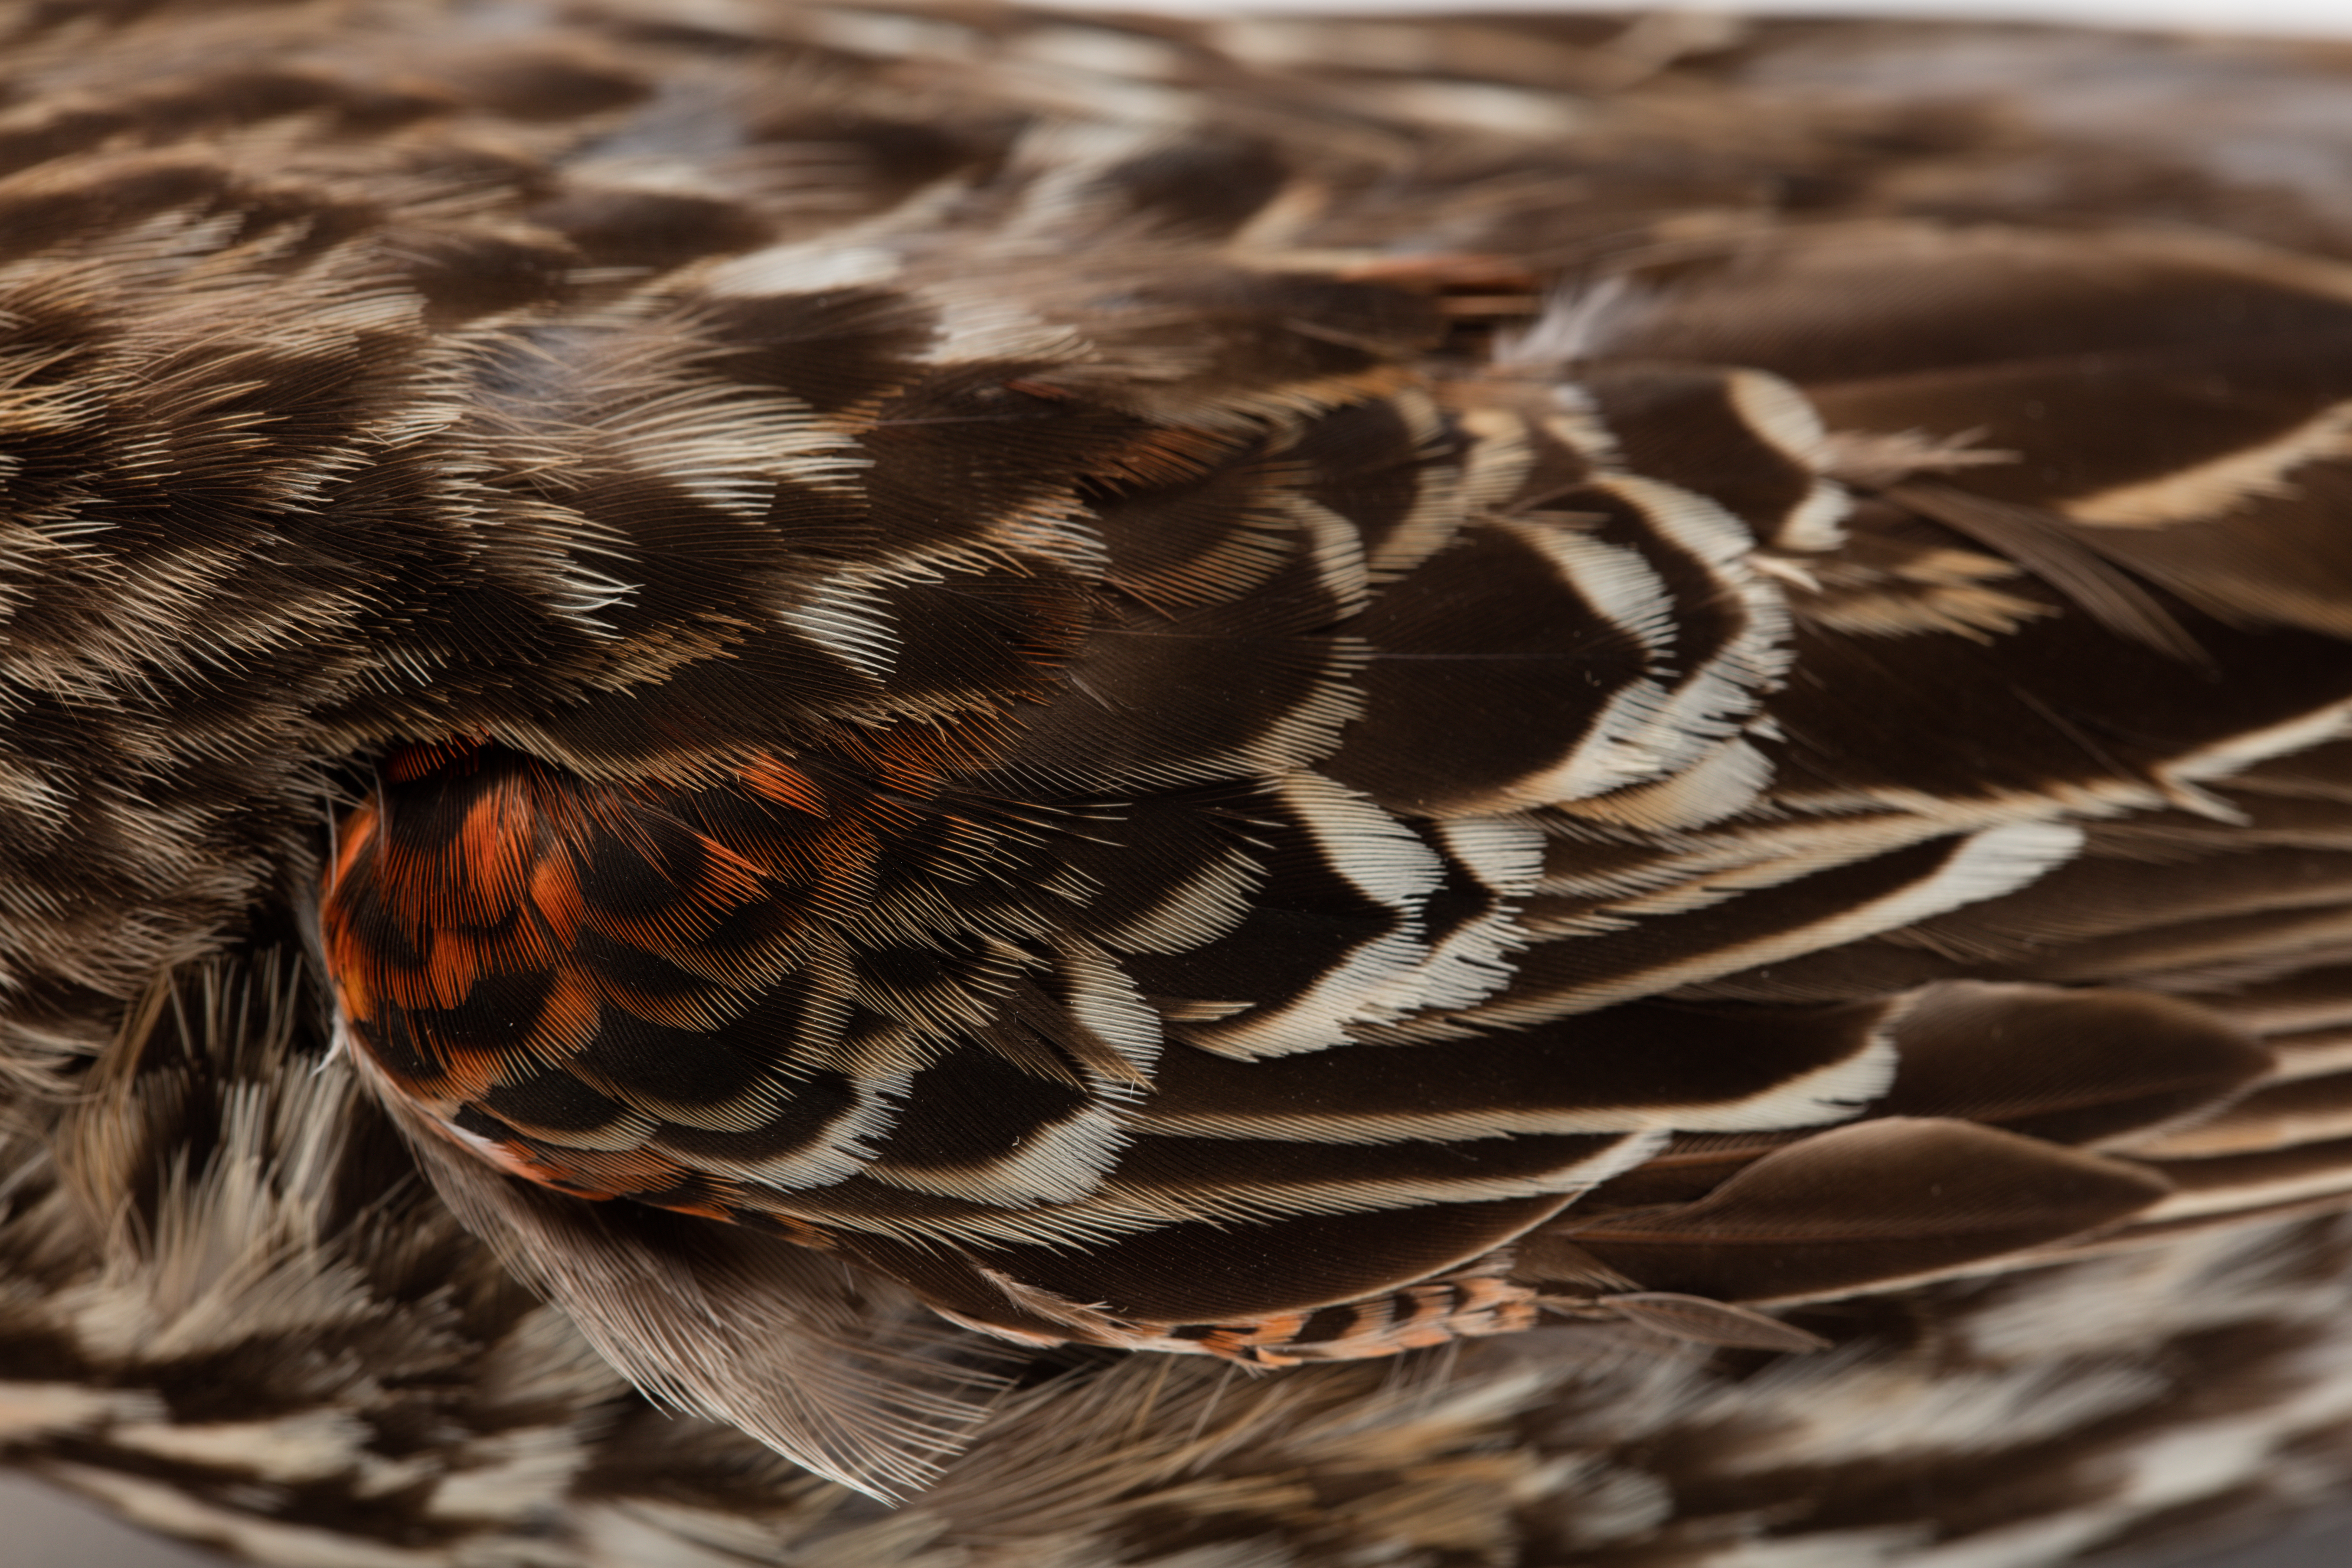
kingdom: Animalia
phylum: Chordata
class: Aves
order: Passeriformes
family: Icteridae
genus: Agelaius
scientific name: Agelaius phoeniceus
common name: Red-winged blackbird
